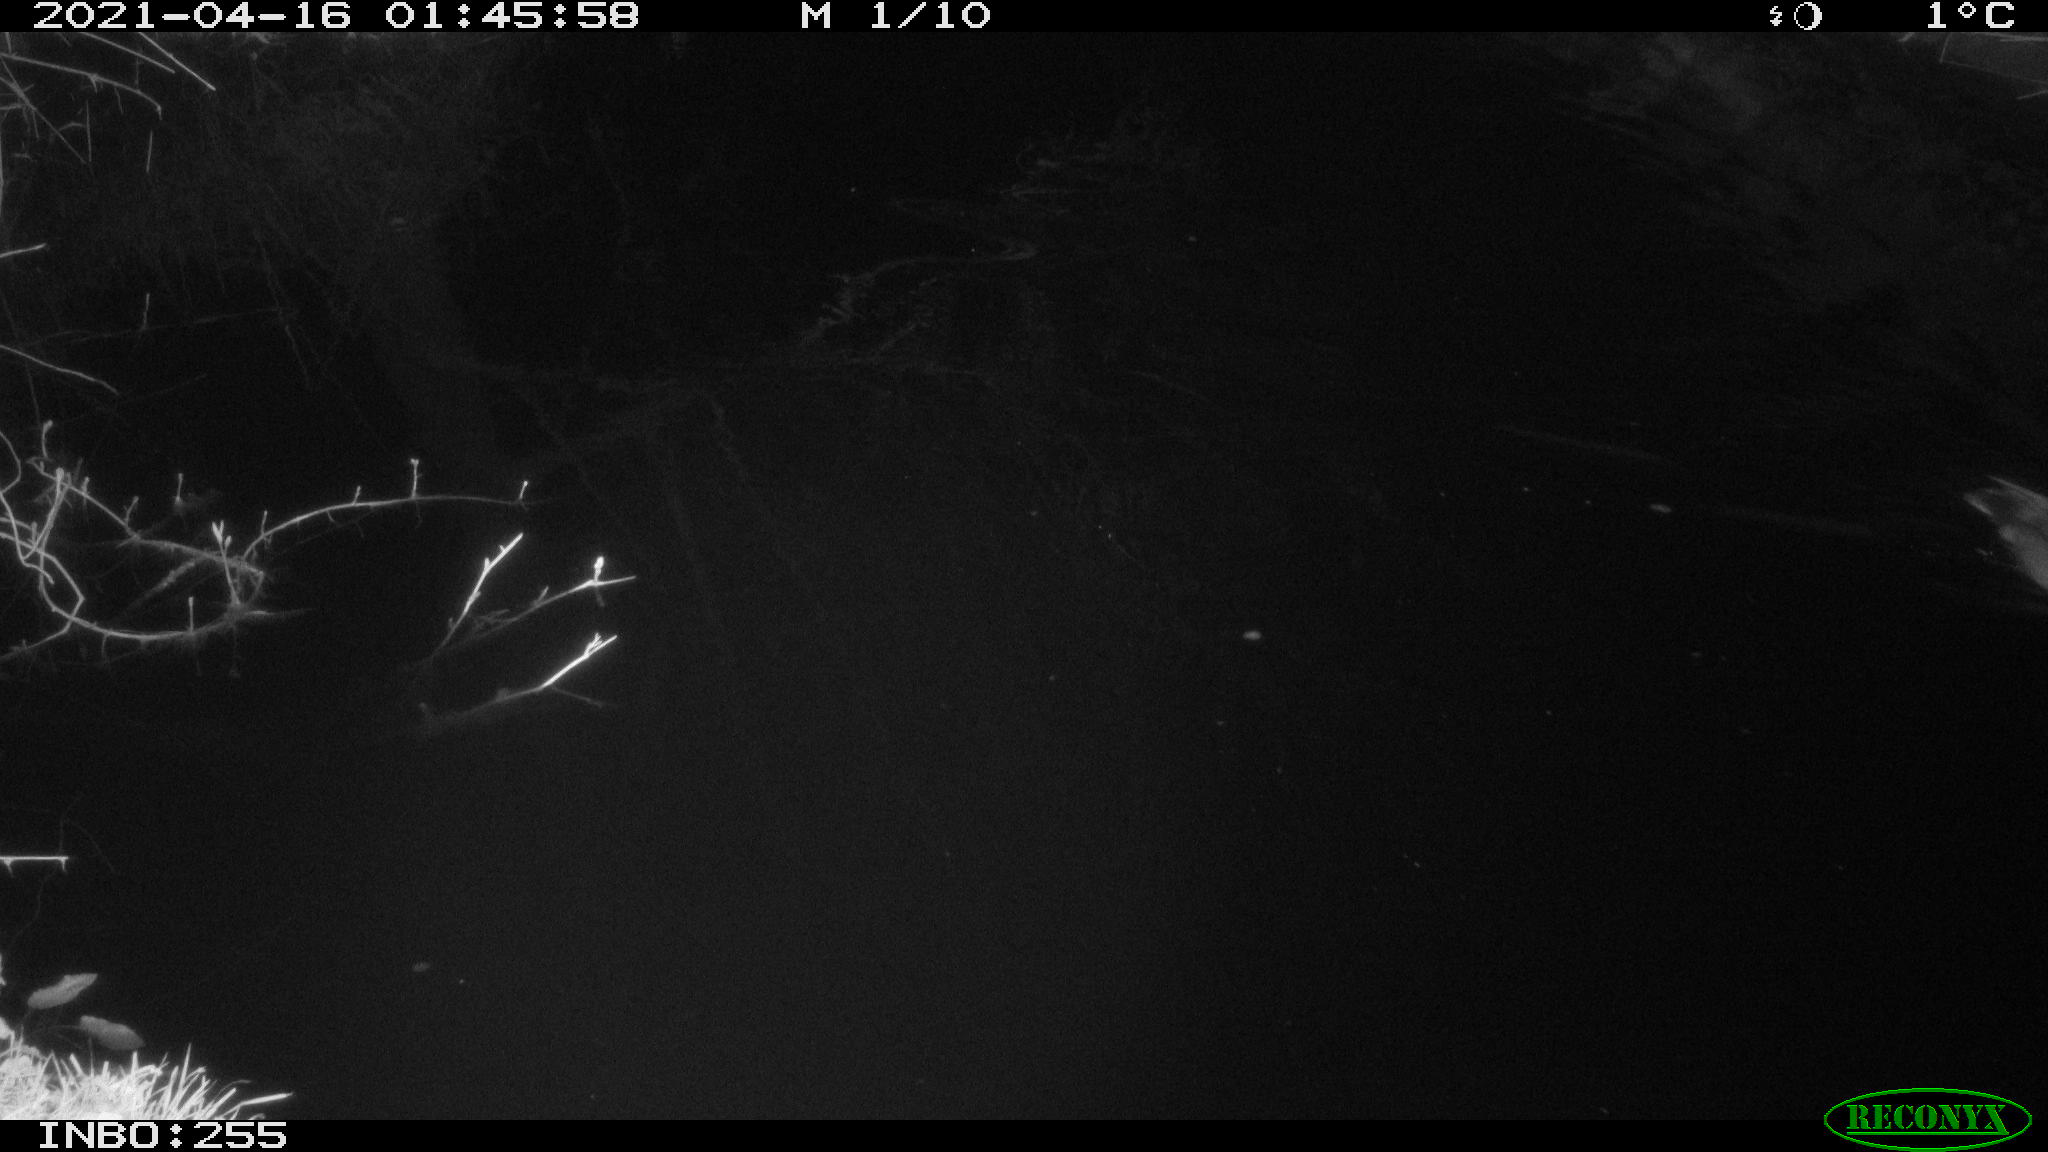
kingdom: Animalia
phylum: Chordata
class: Aves
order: Anseriformes
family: Anatidae
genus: Anas
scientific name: Anas platyrhynchos
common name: Mallard
